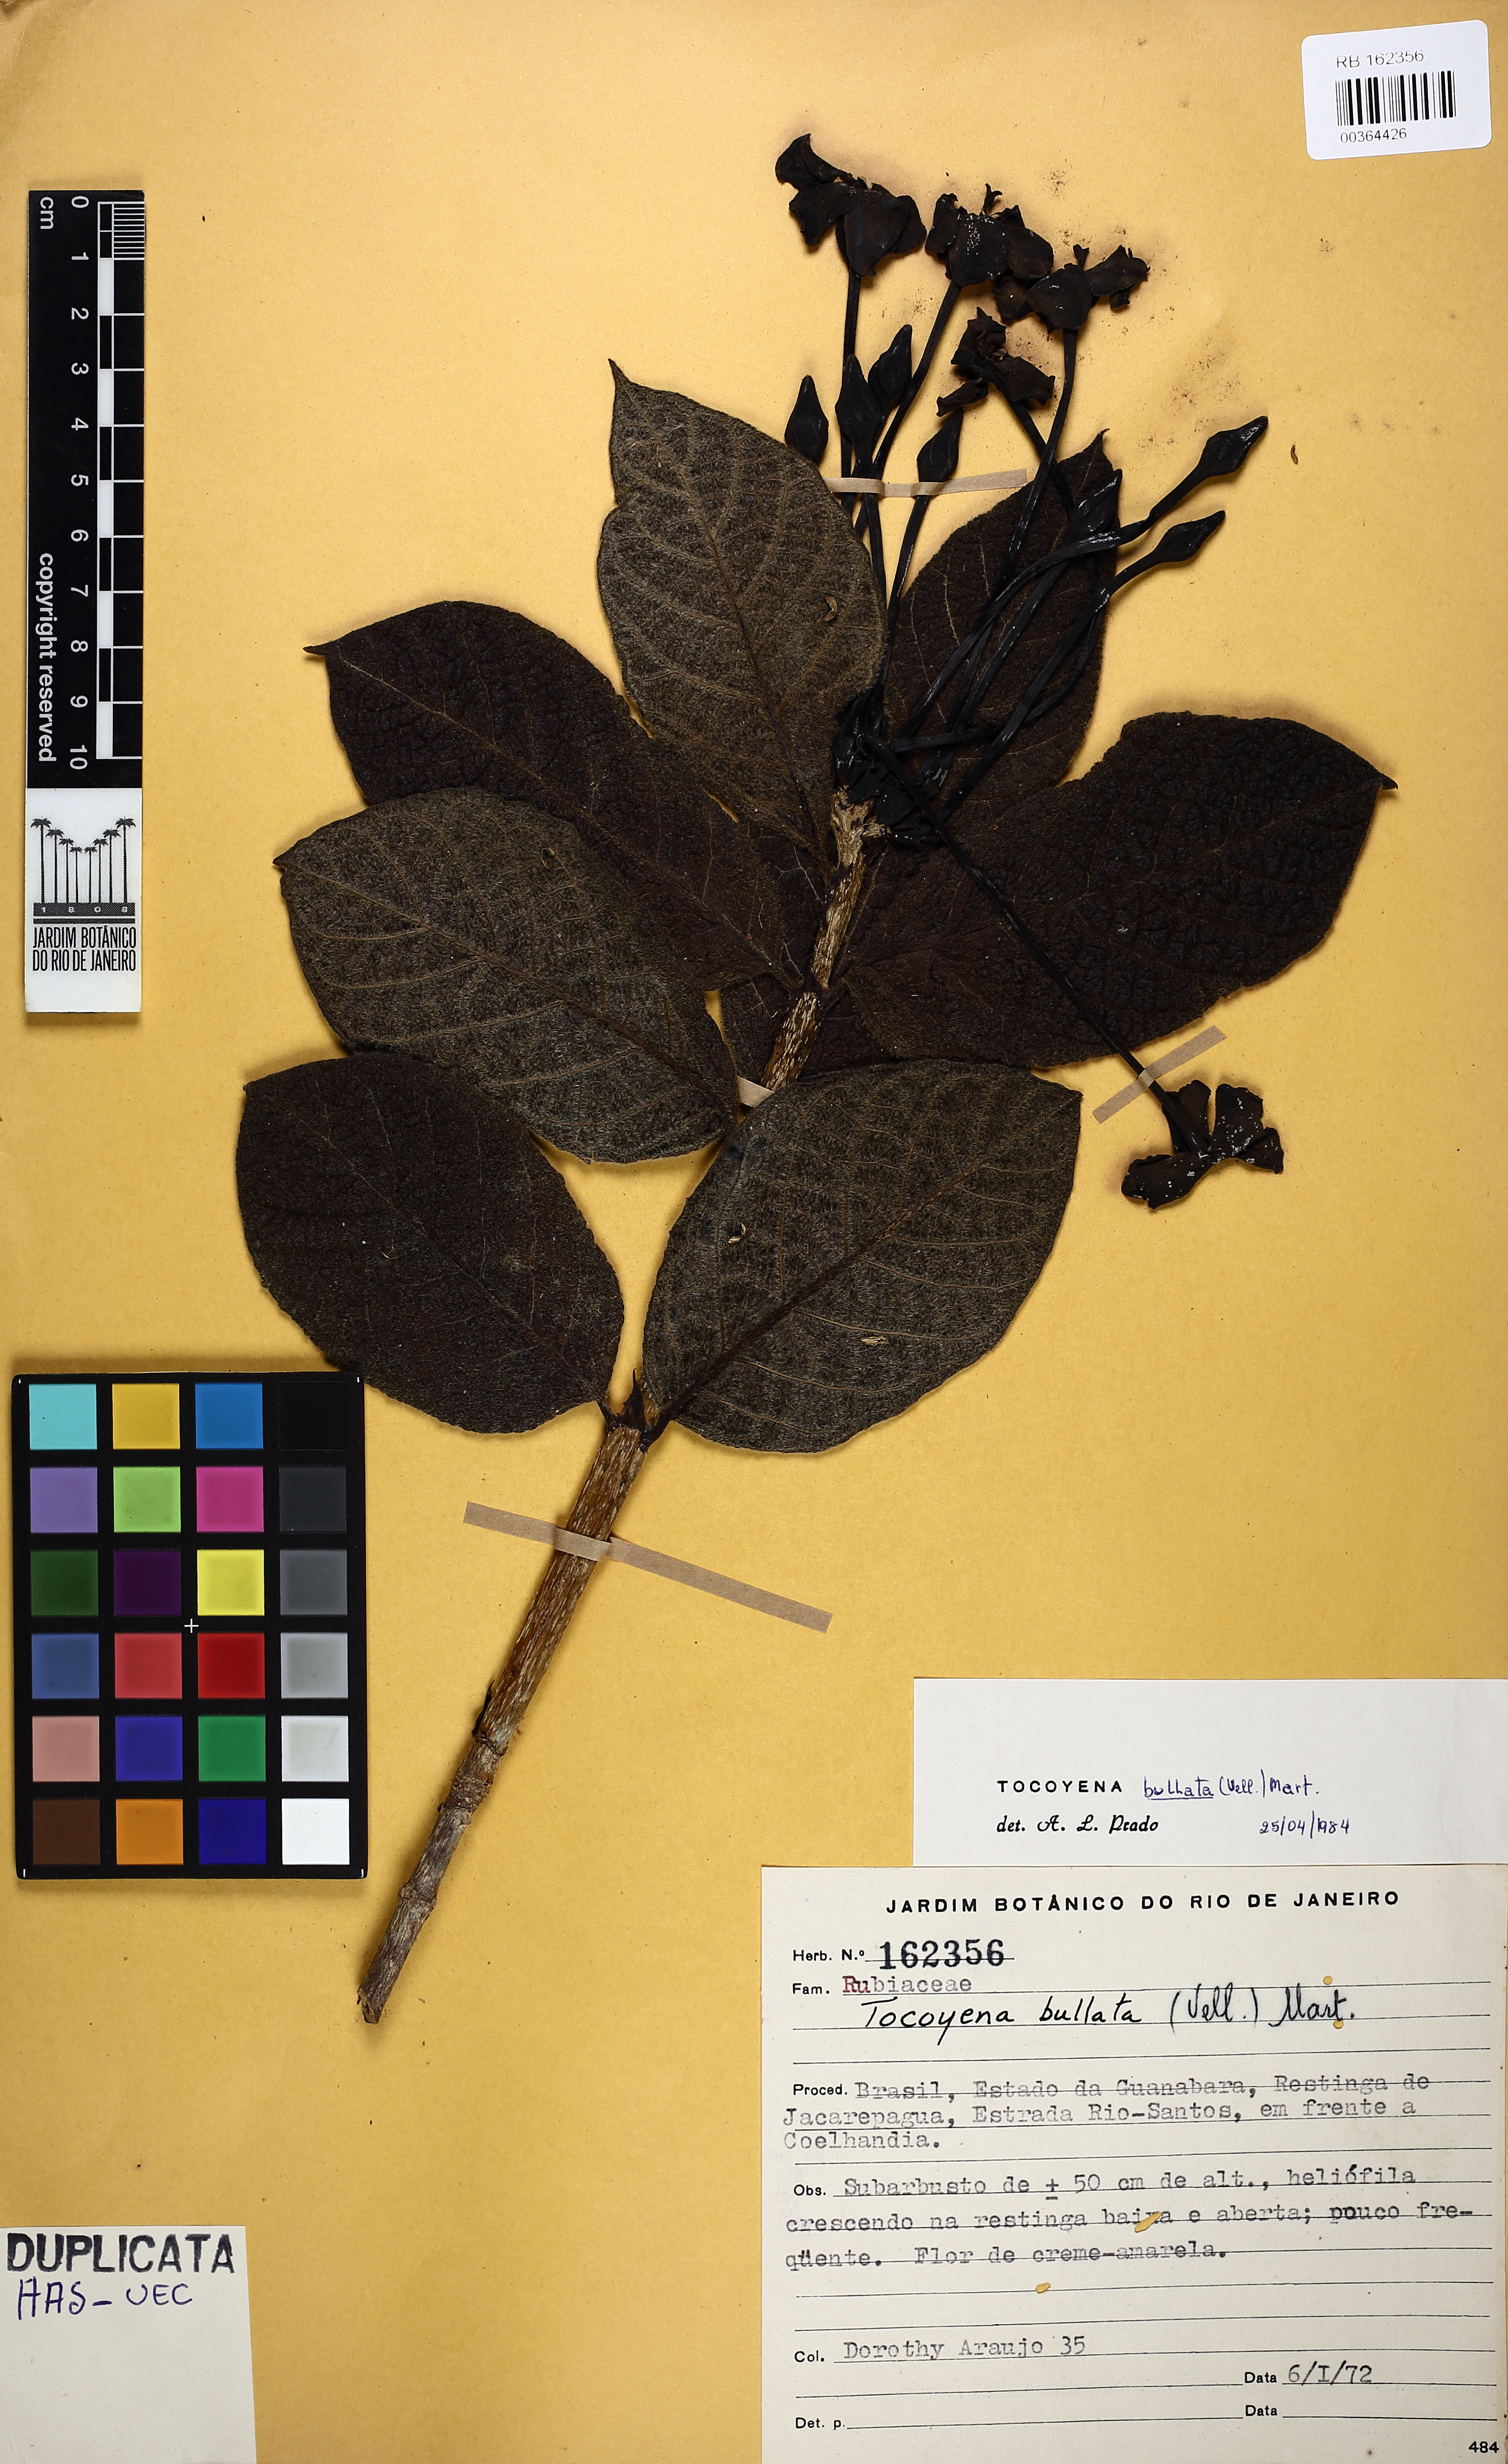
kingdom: Plantae
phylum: Tracheophyta
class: Magnoliopsida
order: Gentianales
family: Rubiaceae
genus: Tocoyena
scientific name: Tocoyena bullata
